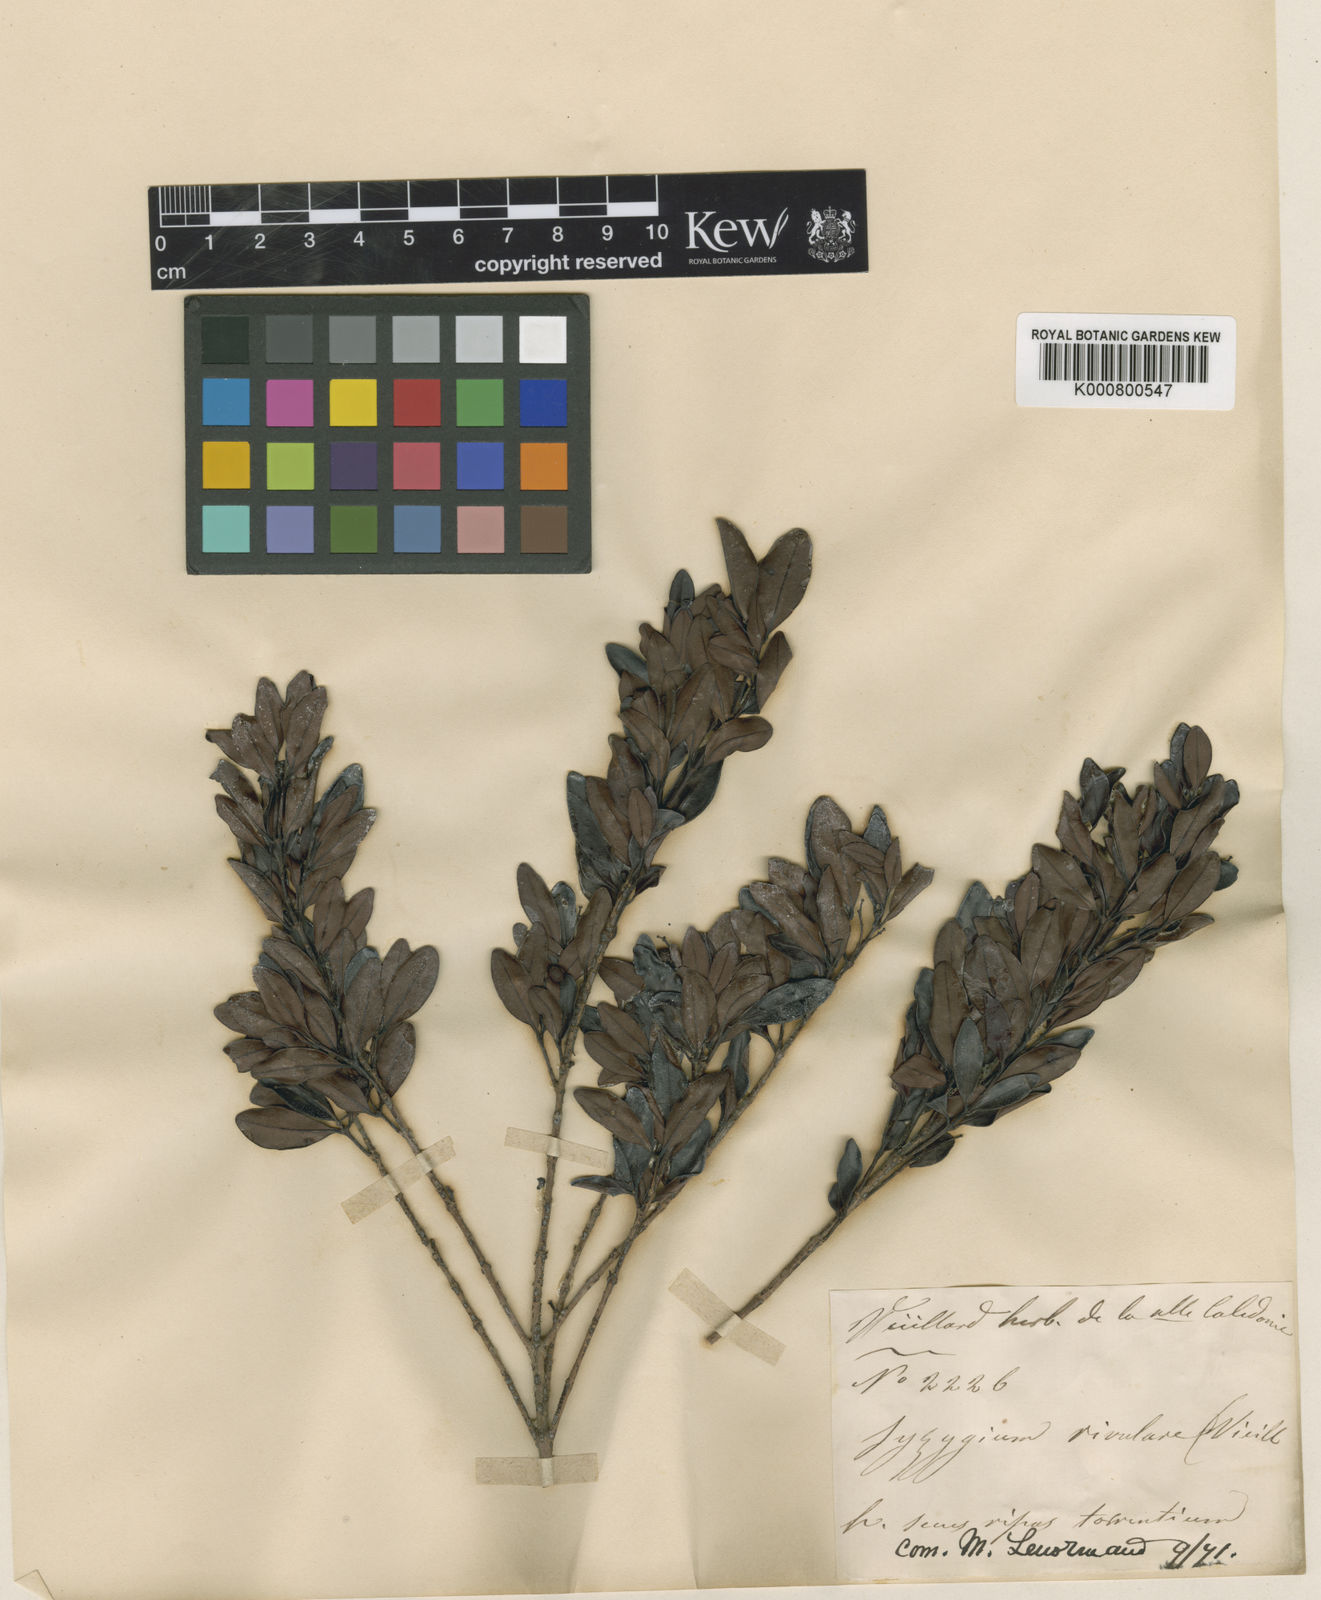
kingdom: Plantae
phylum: Tracheophyta
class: Magnoliopsida
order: Myrtales
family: Myrtaceae
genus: Syzygium
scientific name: Syzygium rivulare
